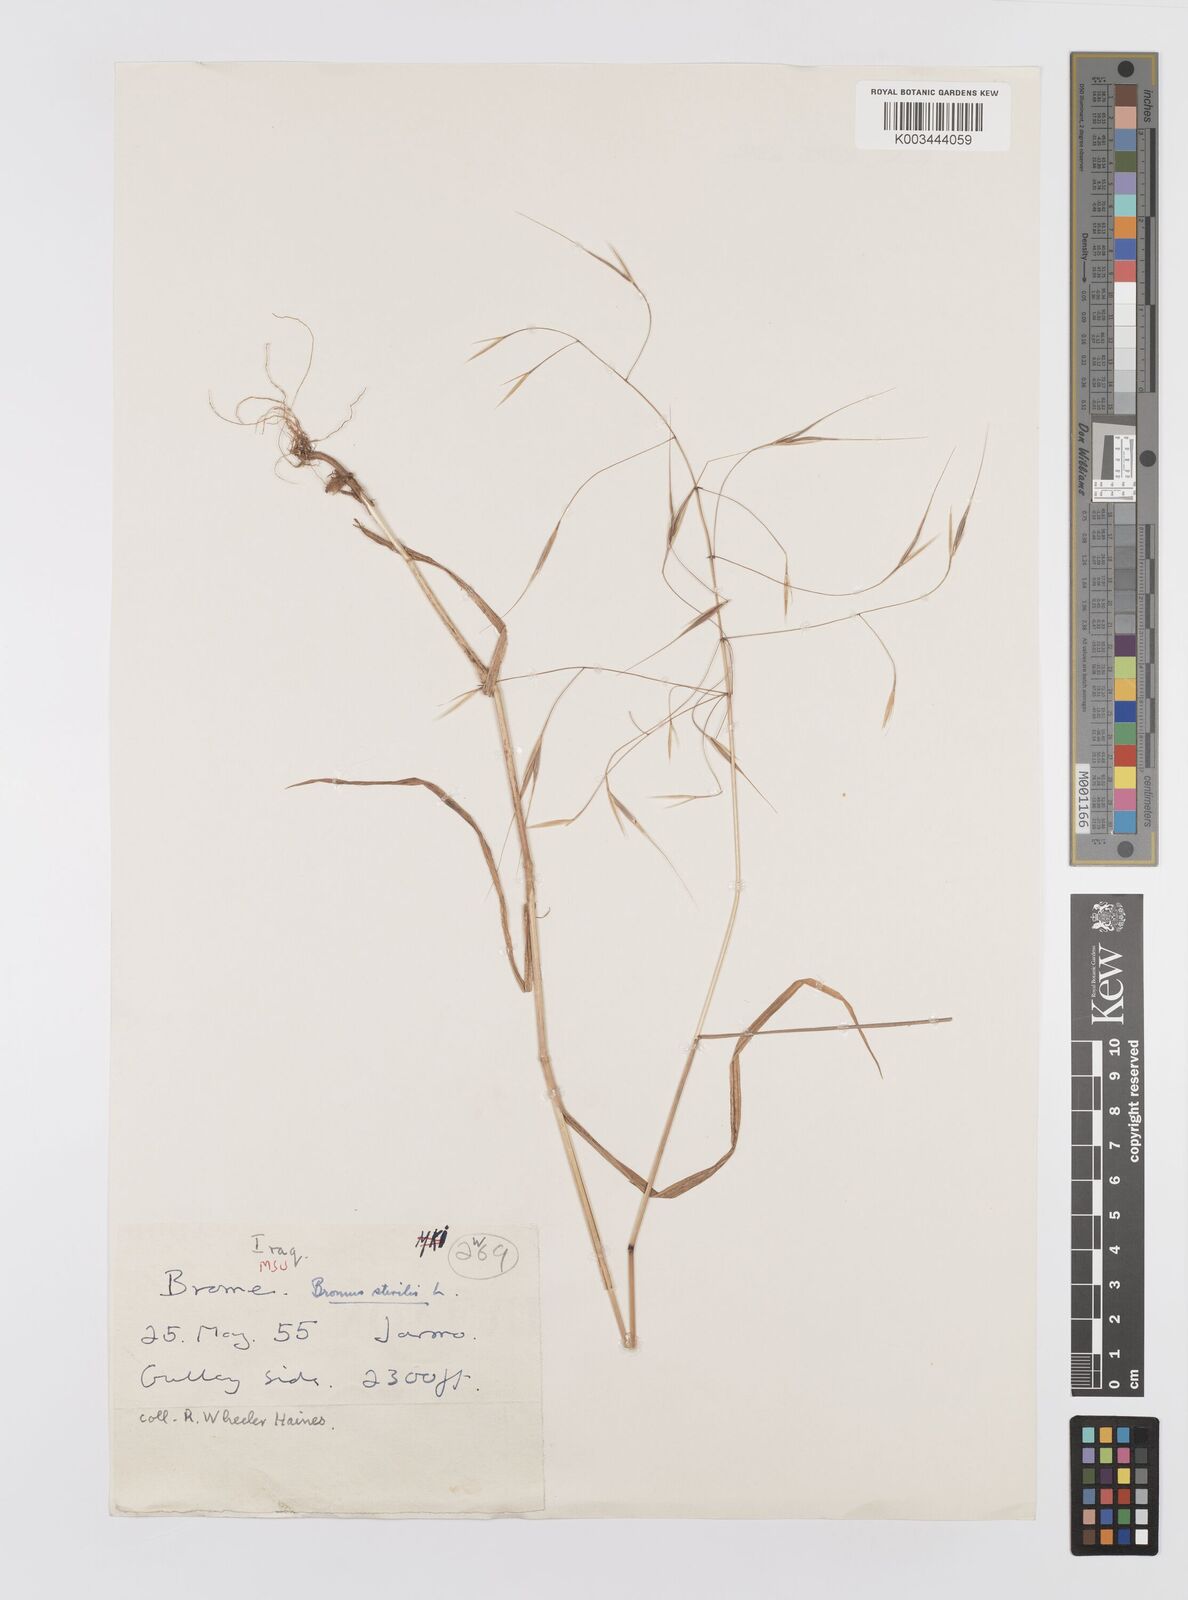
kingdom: Plantae
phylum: Tracheophyta
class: Liliopsida
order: Poales
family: Poaceae
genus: Bromus
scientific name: Bromus sterilis
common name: Poverty brome
